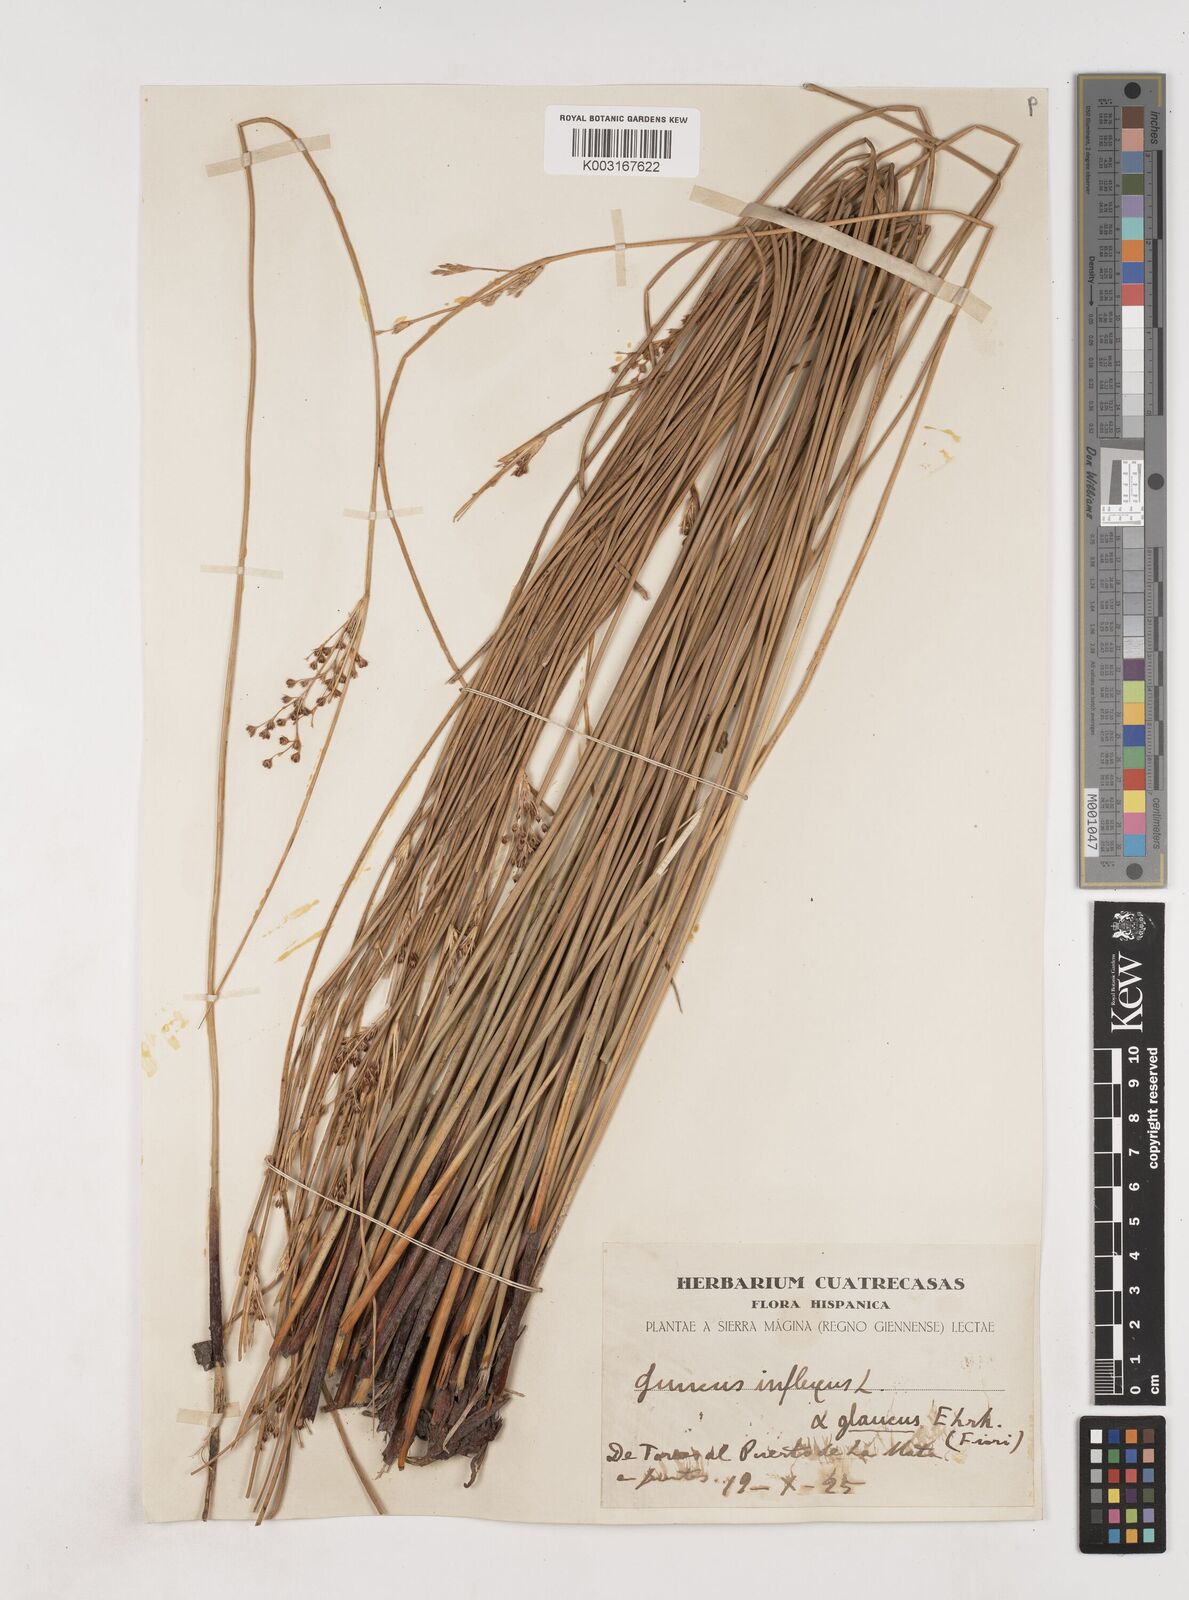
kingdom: Plantae
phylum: Tracheophyta
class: Liliopsida
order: Poales
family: Juncaceae
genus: Juncus
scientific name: Juncus inflexus
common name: Hard rush
